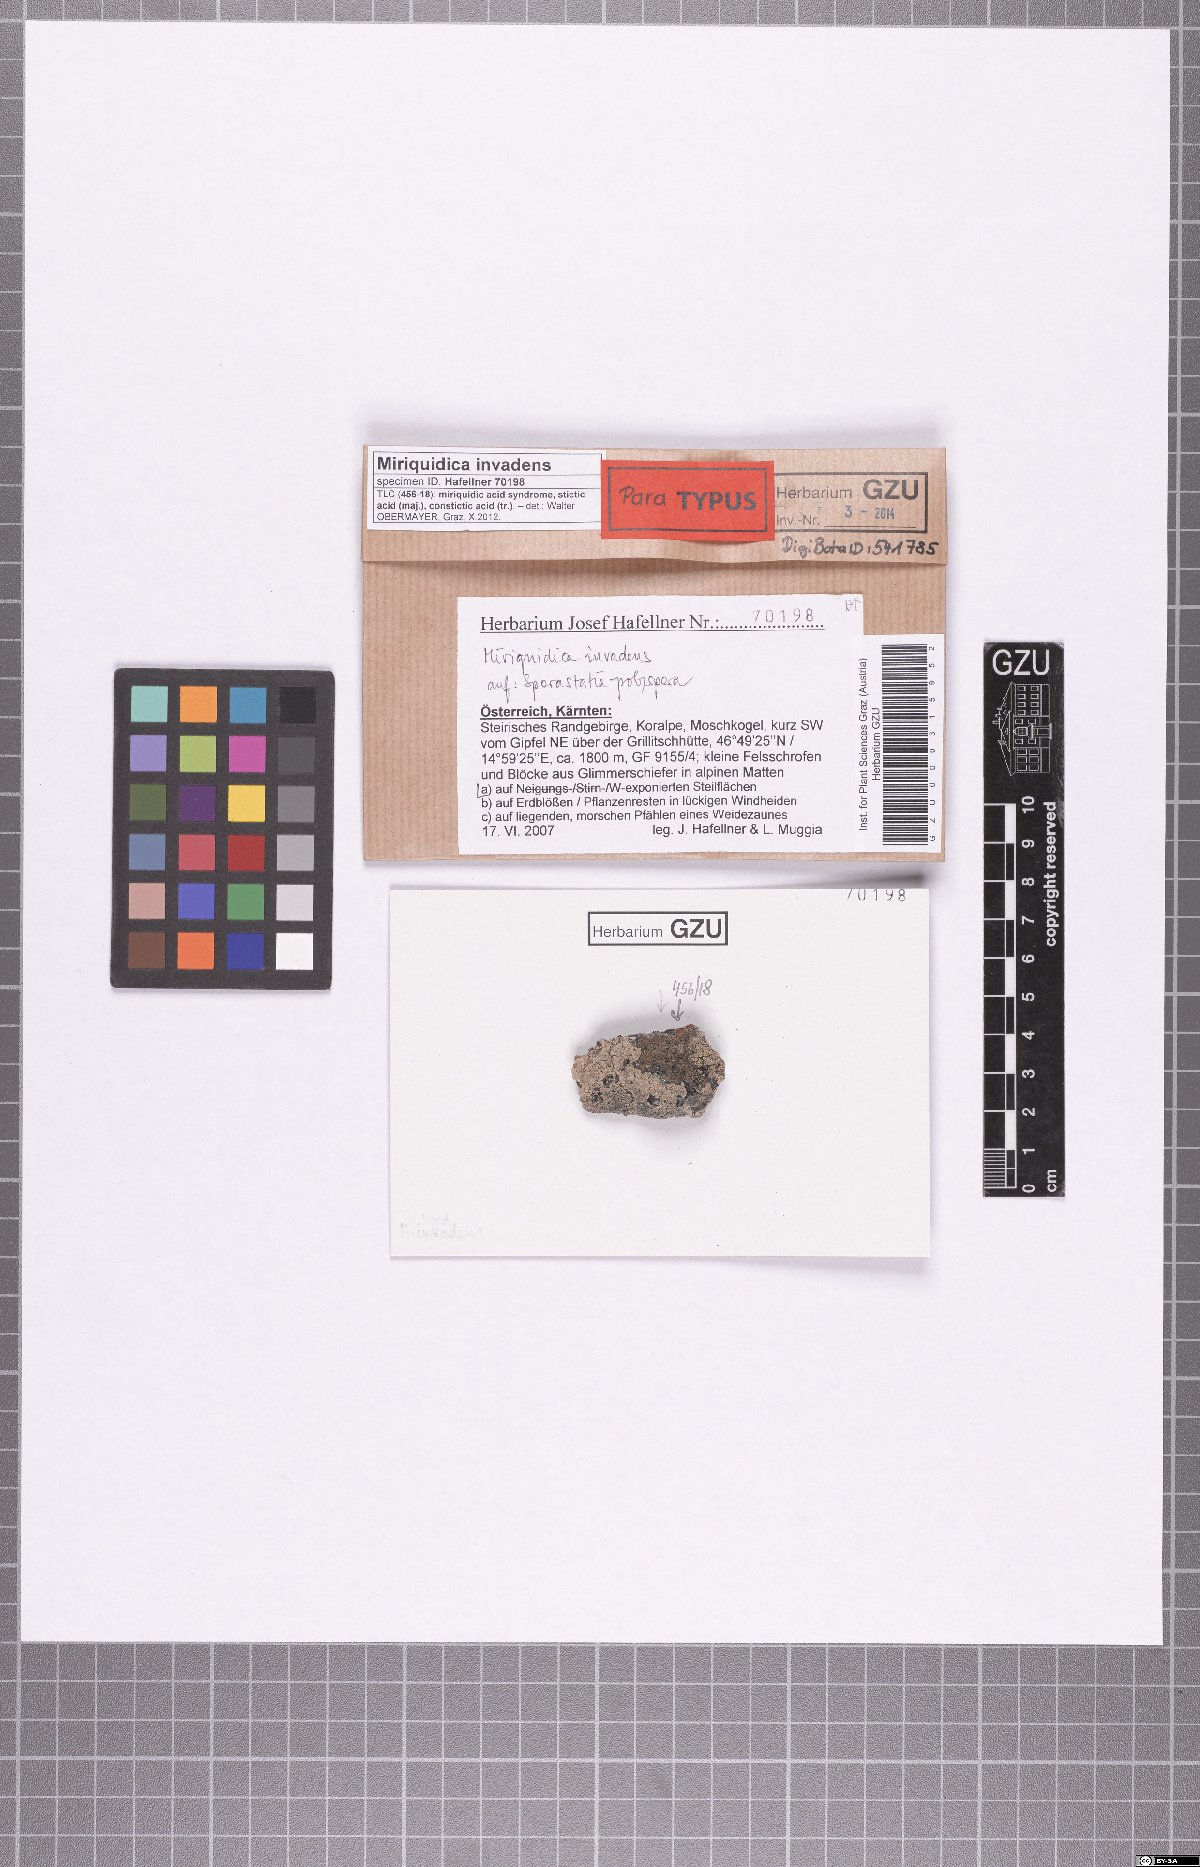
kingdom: Fungi
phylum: Ascomycota
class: Lecanoromycetes
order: Lecanorales
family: Lecanoraceae
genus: Miriquidica
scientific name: Miriquidica invadens
